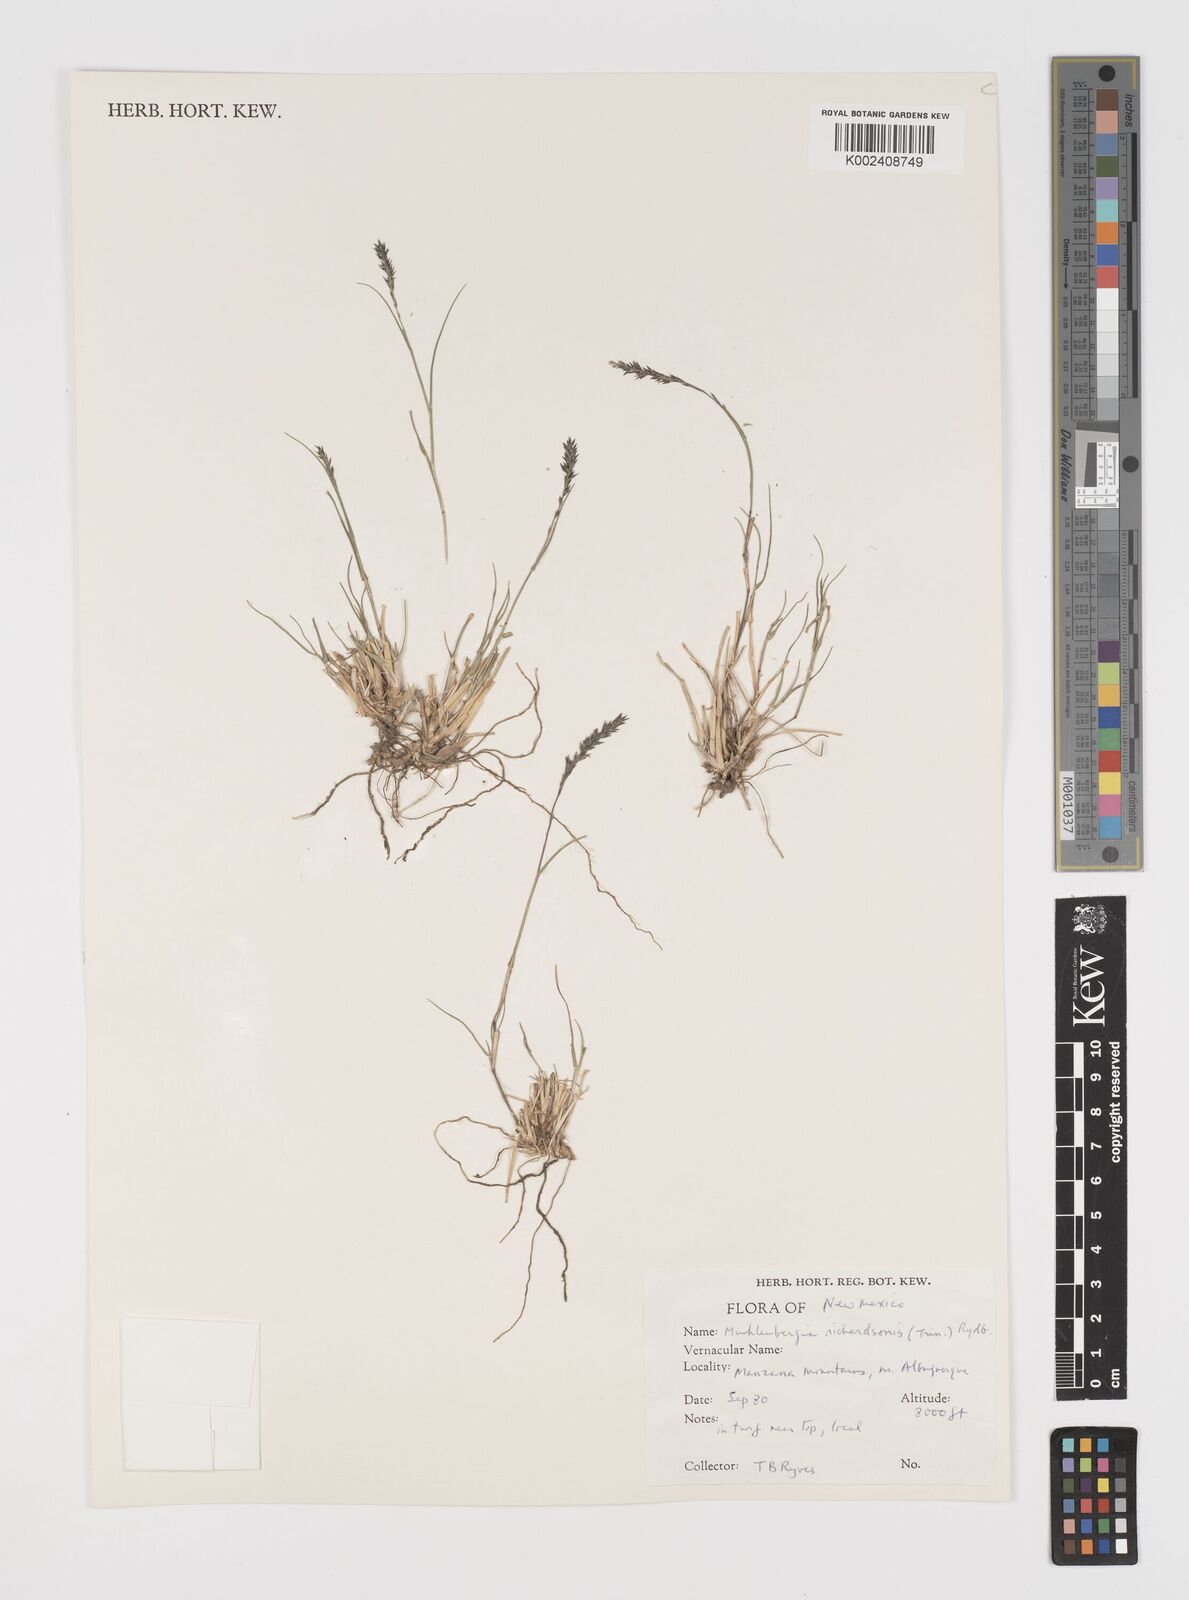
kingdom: Plantae
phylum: Tracheophyta
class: Liliopsida
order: Poales
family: Poaceae
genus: Muhlenbergia
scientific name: Muhlenbergia richardsonis
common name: Mat muhly
